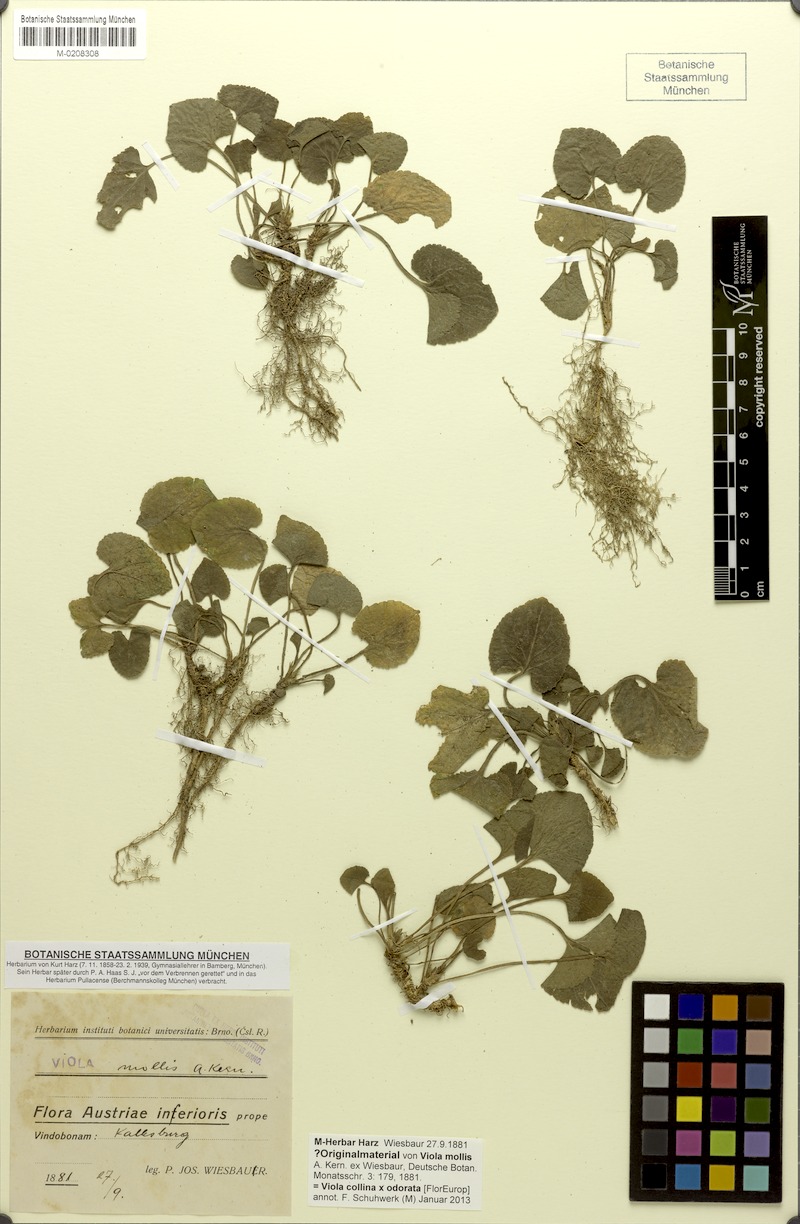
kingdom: Plantae
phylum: Tracheophyta
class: Magnoliopsida
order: Malpighiales
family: Violaceae
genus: Viola
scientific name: Viola suavis
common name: Russian violet
